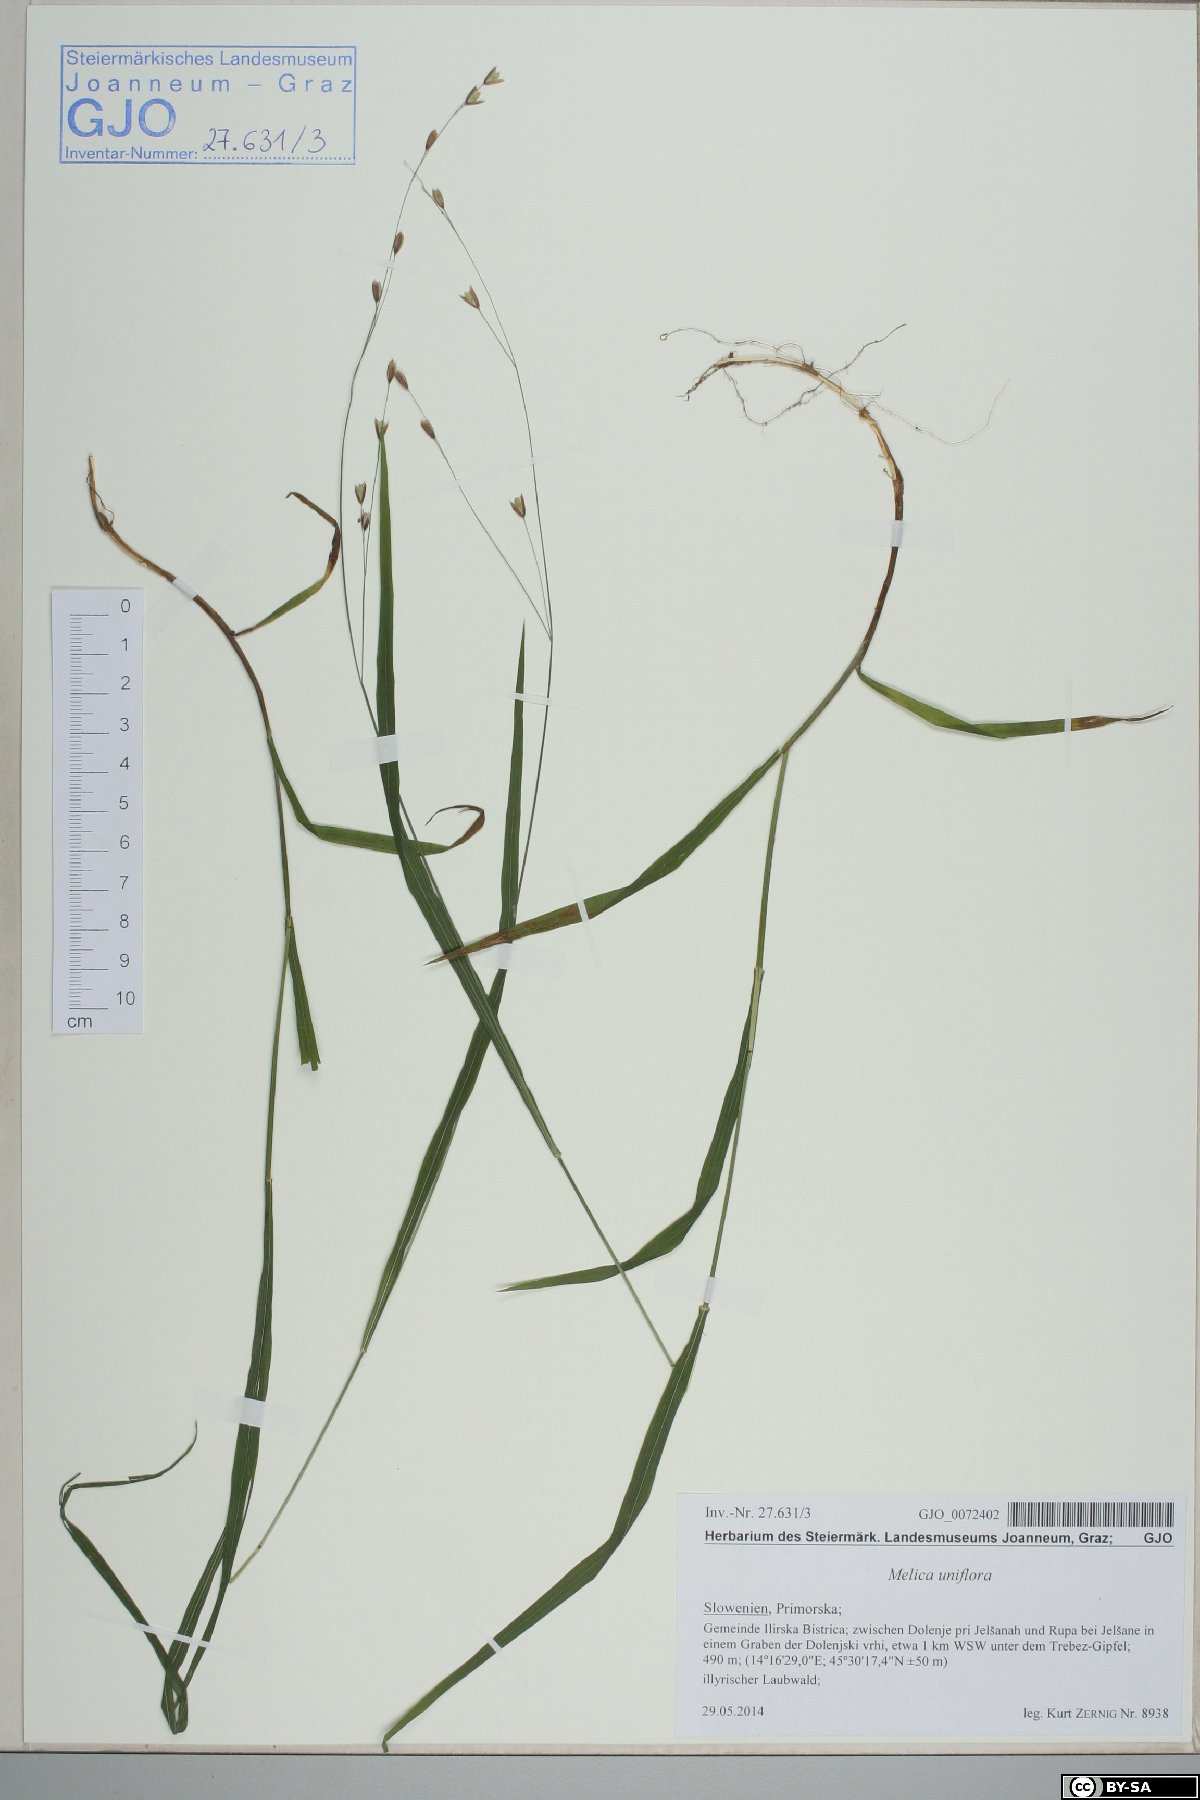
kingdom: Plantae
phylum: Tracheophyta
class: Liliopsida
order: Poales
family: Poaceae
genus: Melica
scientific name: Melica uniflora
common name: Wood melick
